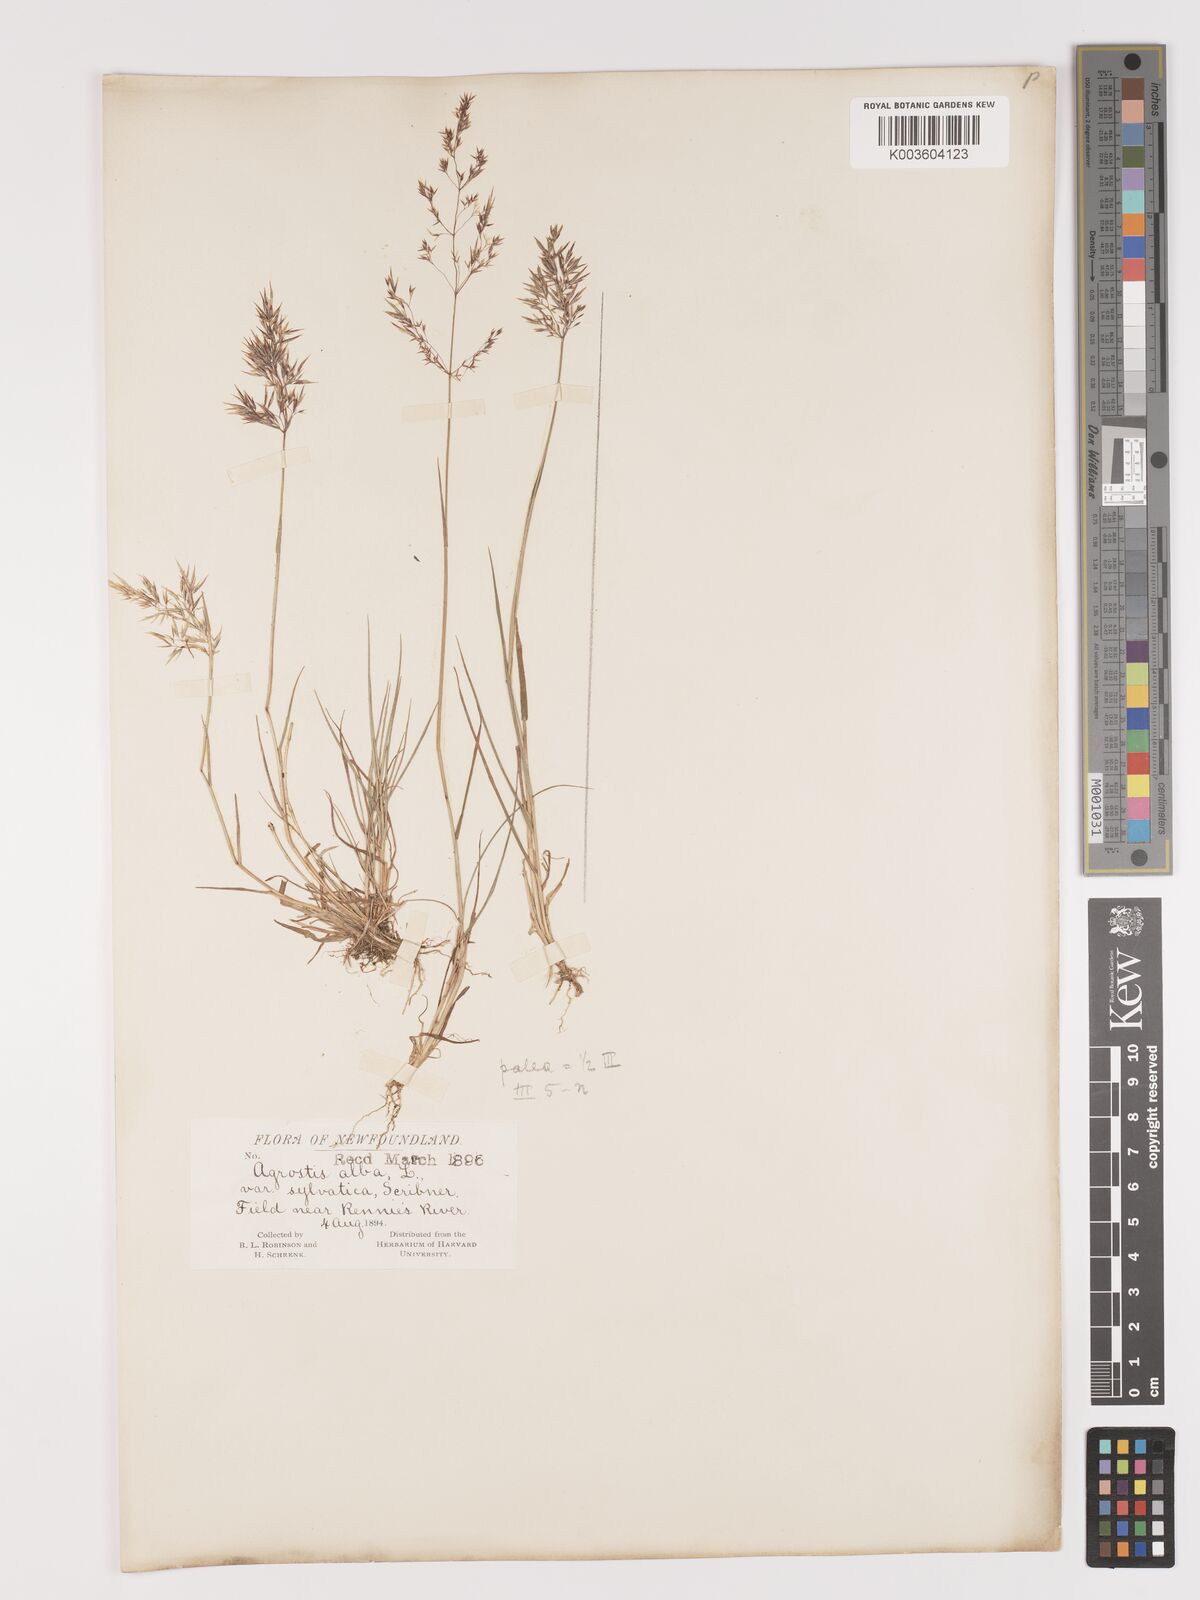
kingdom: Plantae
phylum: Tracheophyta
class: Liliopsida
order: Poales
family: Poaceae
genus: Agrostis
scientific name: Agrostis capillaris
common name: Colonial bentgrass
